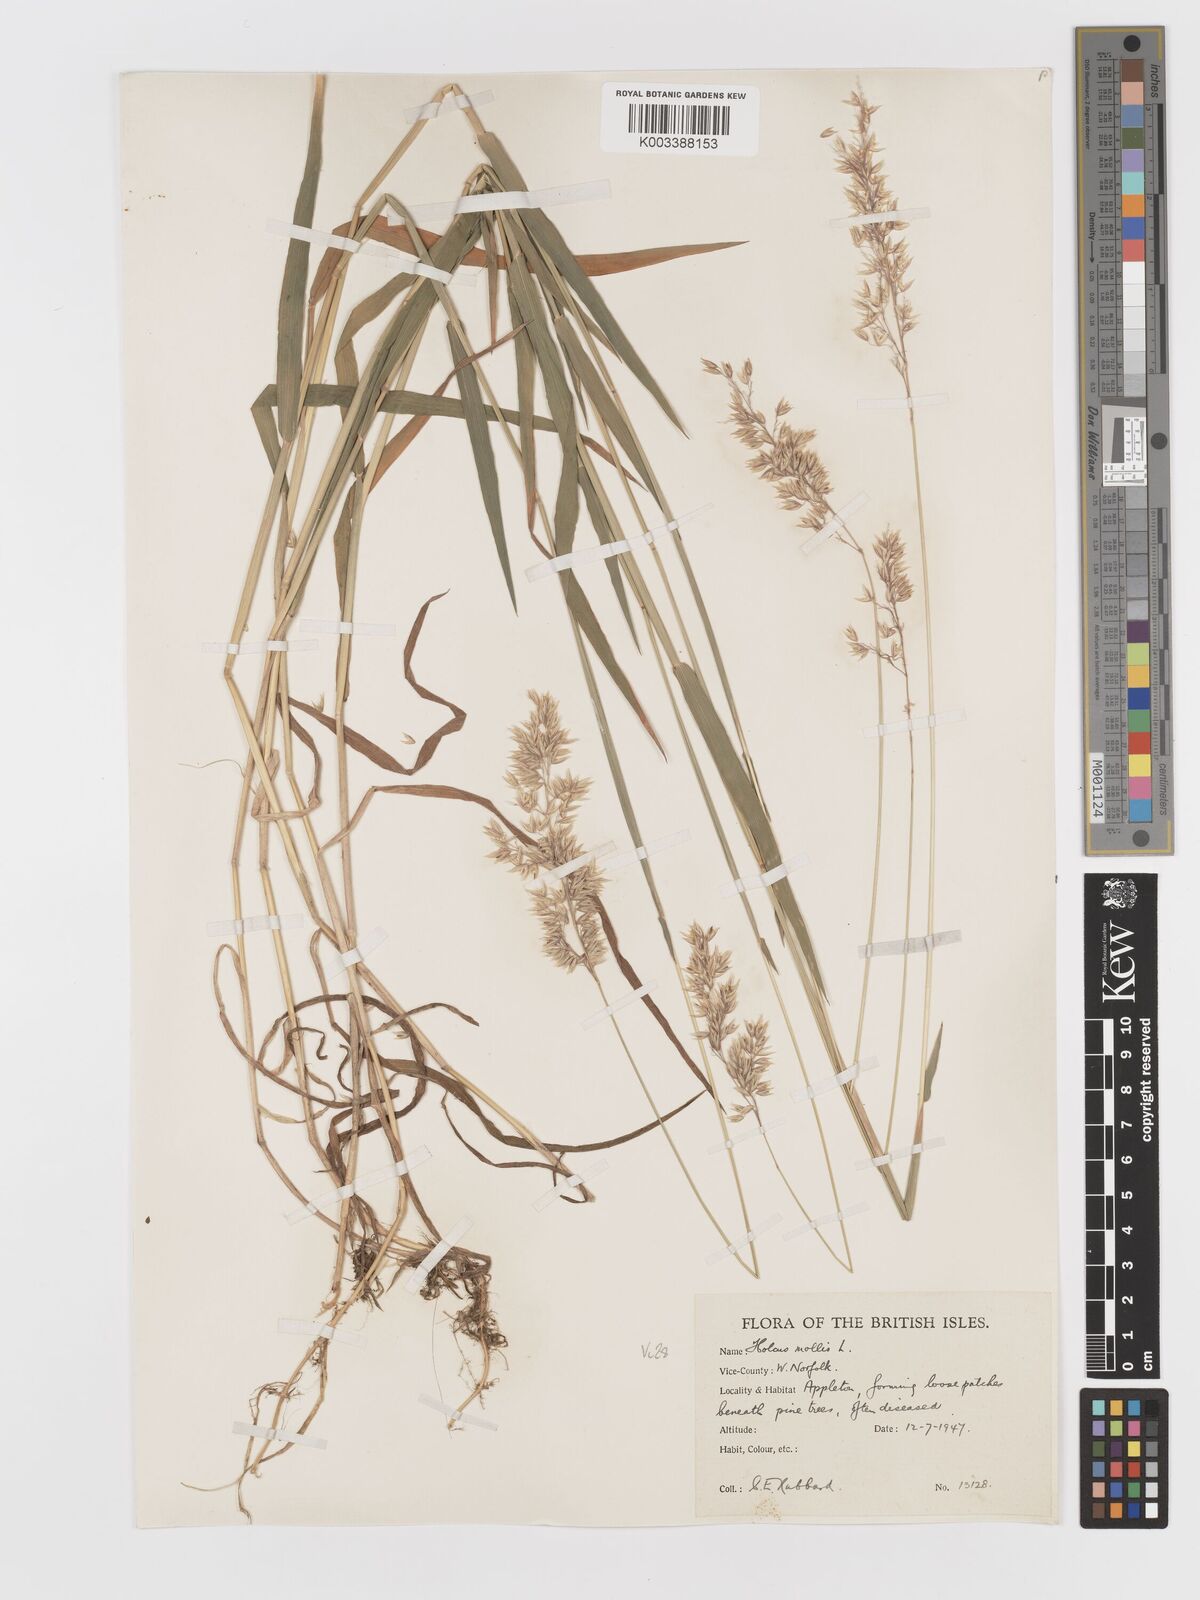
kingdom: Plantae
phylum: Tracheophyta
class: Liliopsida
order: Poales
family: Poaceae
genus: Holcus
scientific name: Holcus mollis
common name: Creeping velvetgrass
